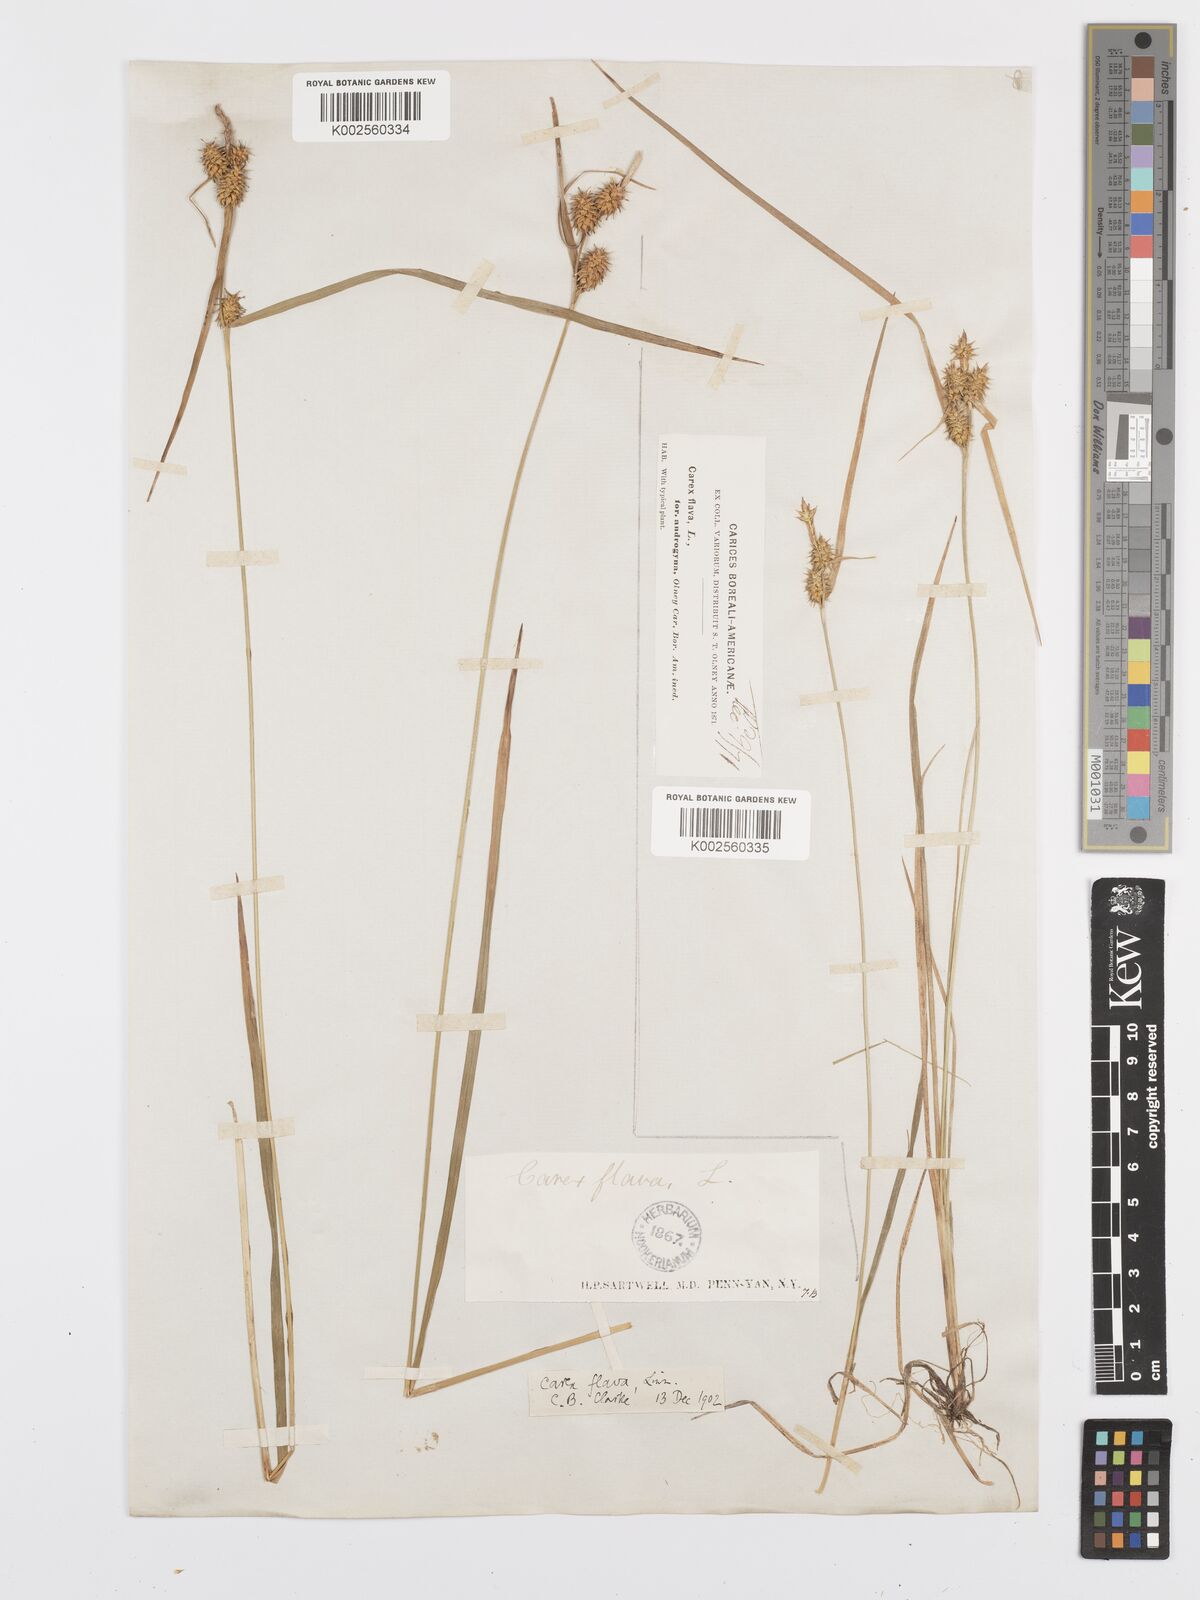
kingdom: Plantae
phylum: Tracheophyta
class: Liliopsida
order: Poales
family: Cyperaceae
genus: Carex
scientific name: Carex flava
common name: Large yellow-sedge
